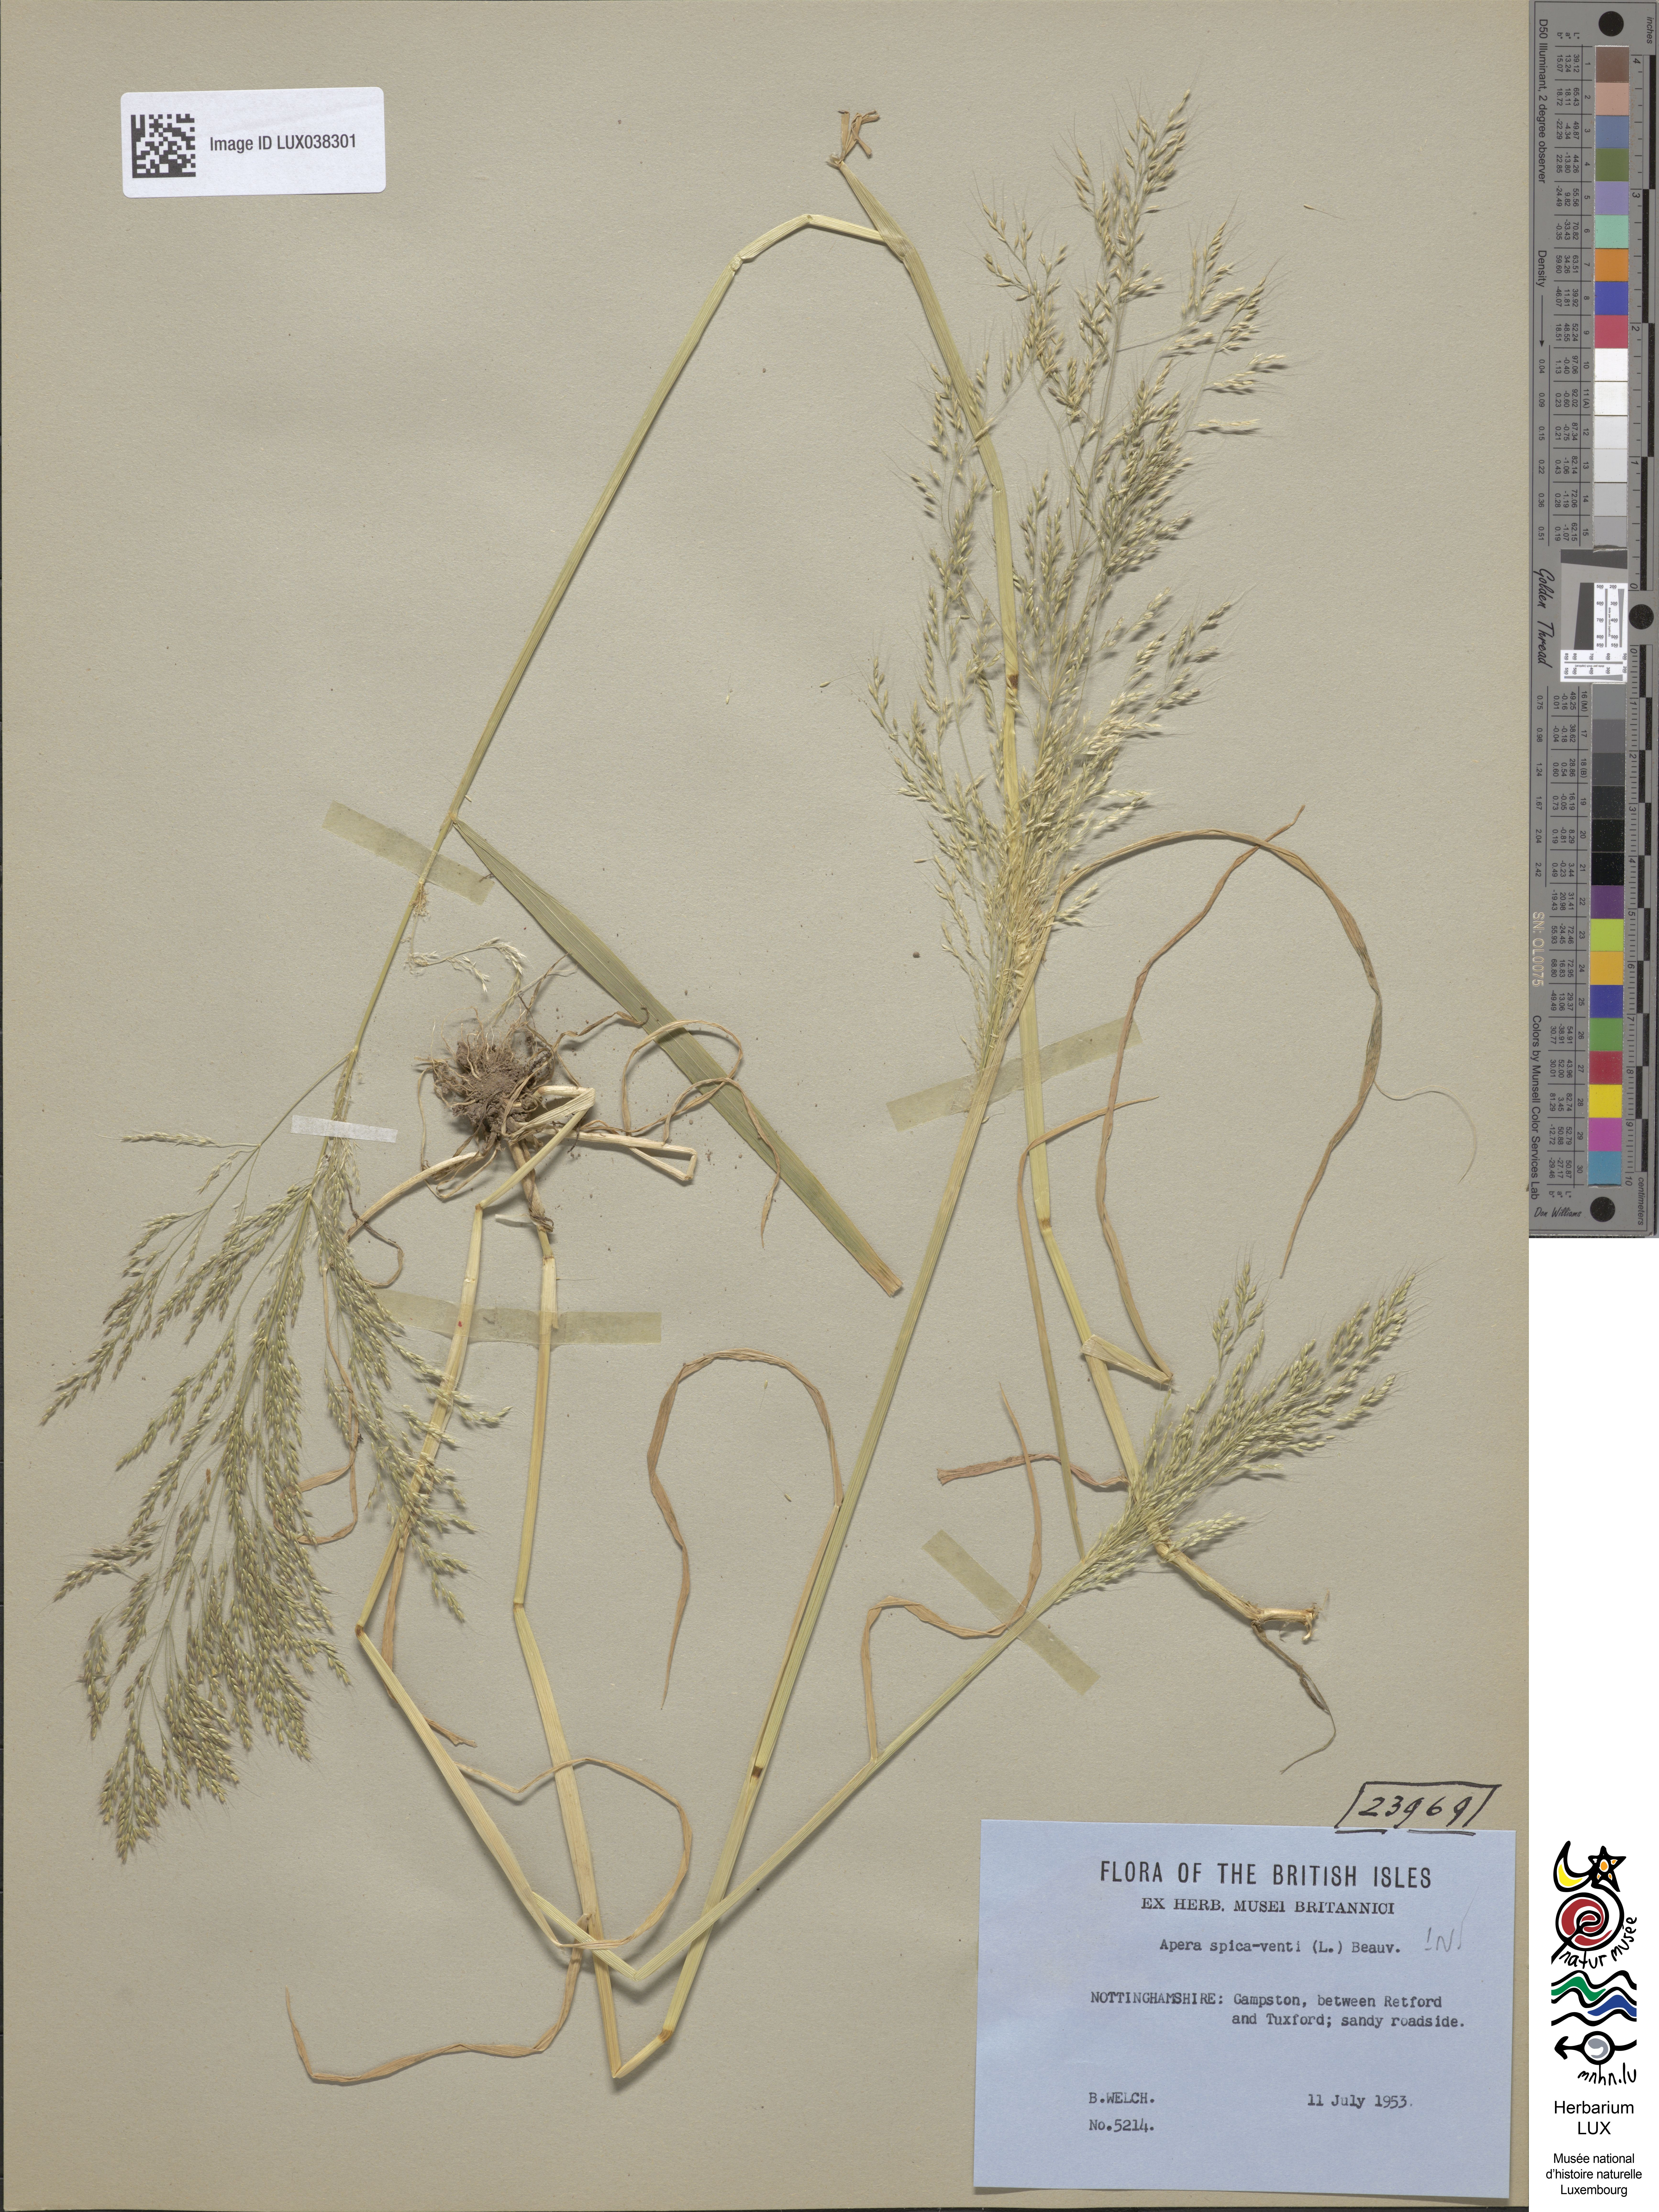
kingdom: Plantae
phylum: Tracheophyta
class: Liliopsida
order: Poales
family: Poaceae
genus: Apera
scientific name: Apera spica-venti
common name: Loose silky-bent
